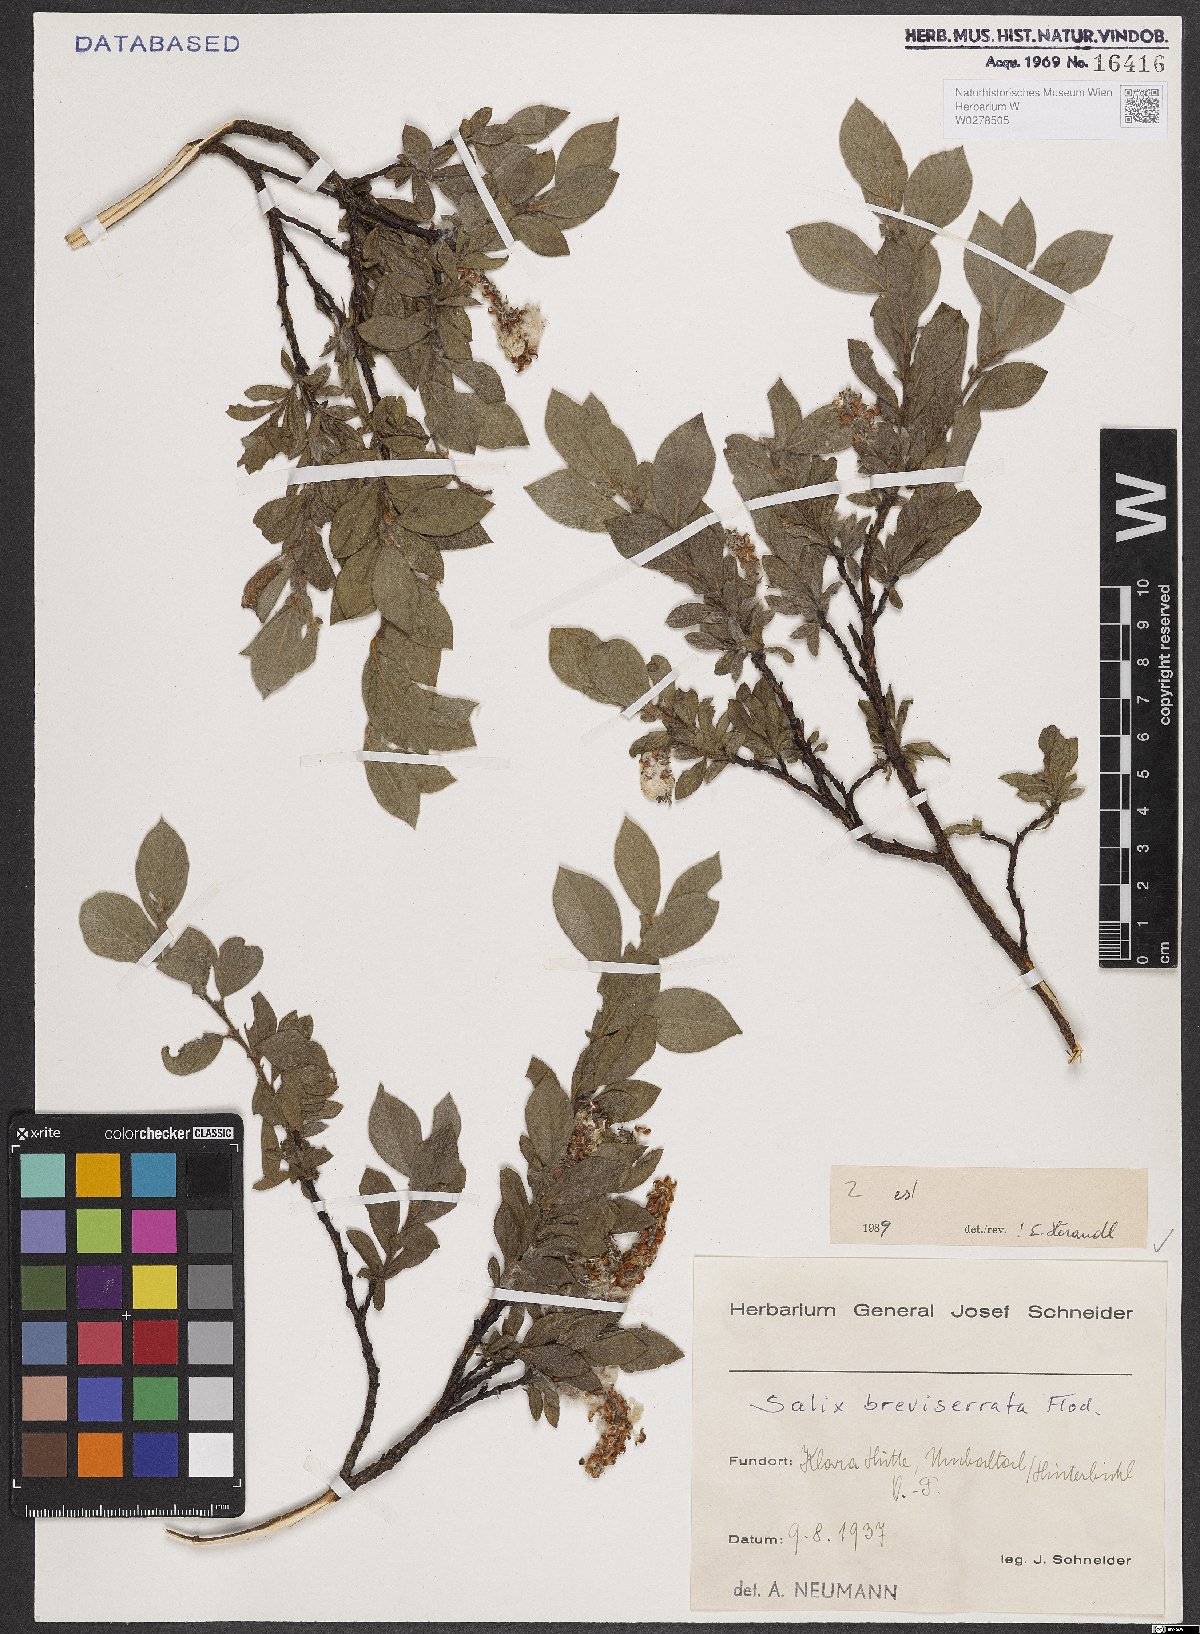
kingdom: Plantae
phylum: Tracheophyta
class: Magnoliopsida
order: Malpighiales
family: Salicaceae
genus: Salix
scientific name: Salix breviserrata
